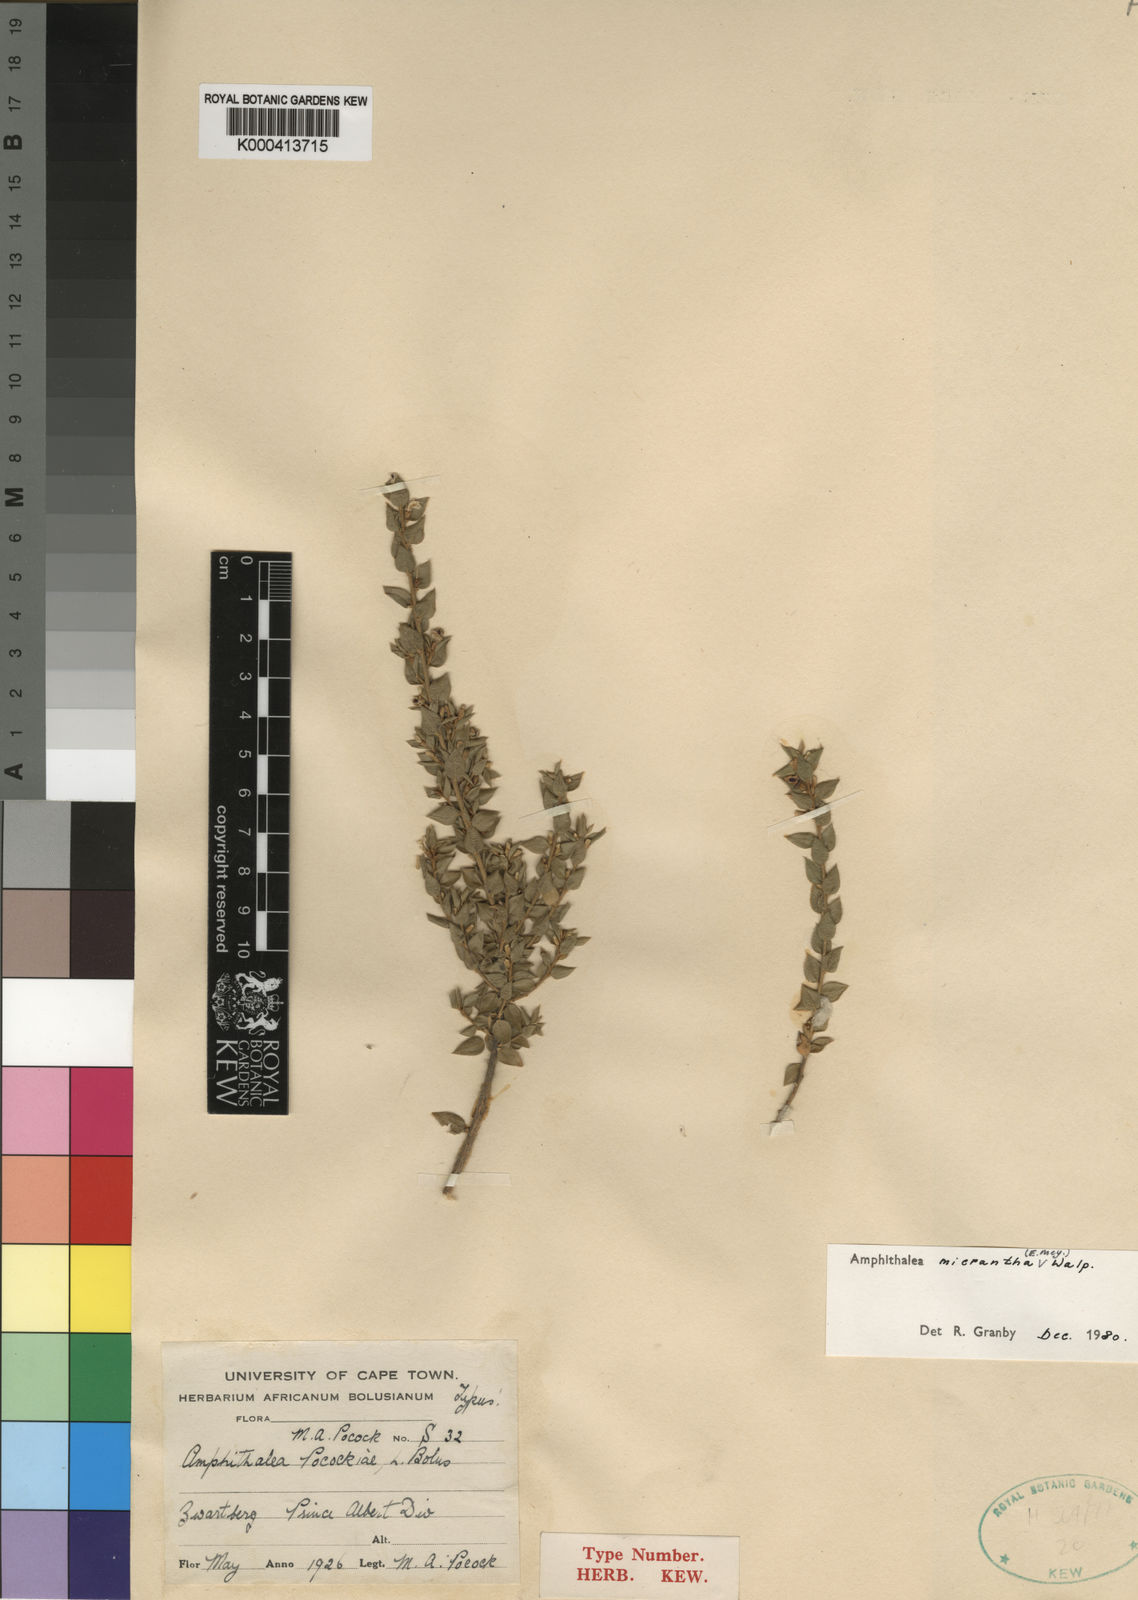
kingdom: Plantae
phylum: Tracheophyta
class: Magnoliopsida
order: Fabales
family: Fabaceae
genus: Amphithalea
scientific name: Amphithalea micrantha
